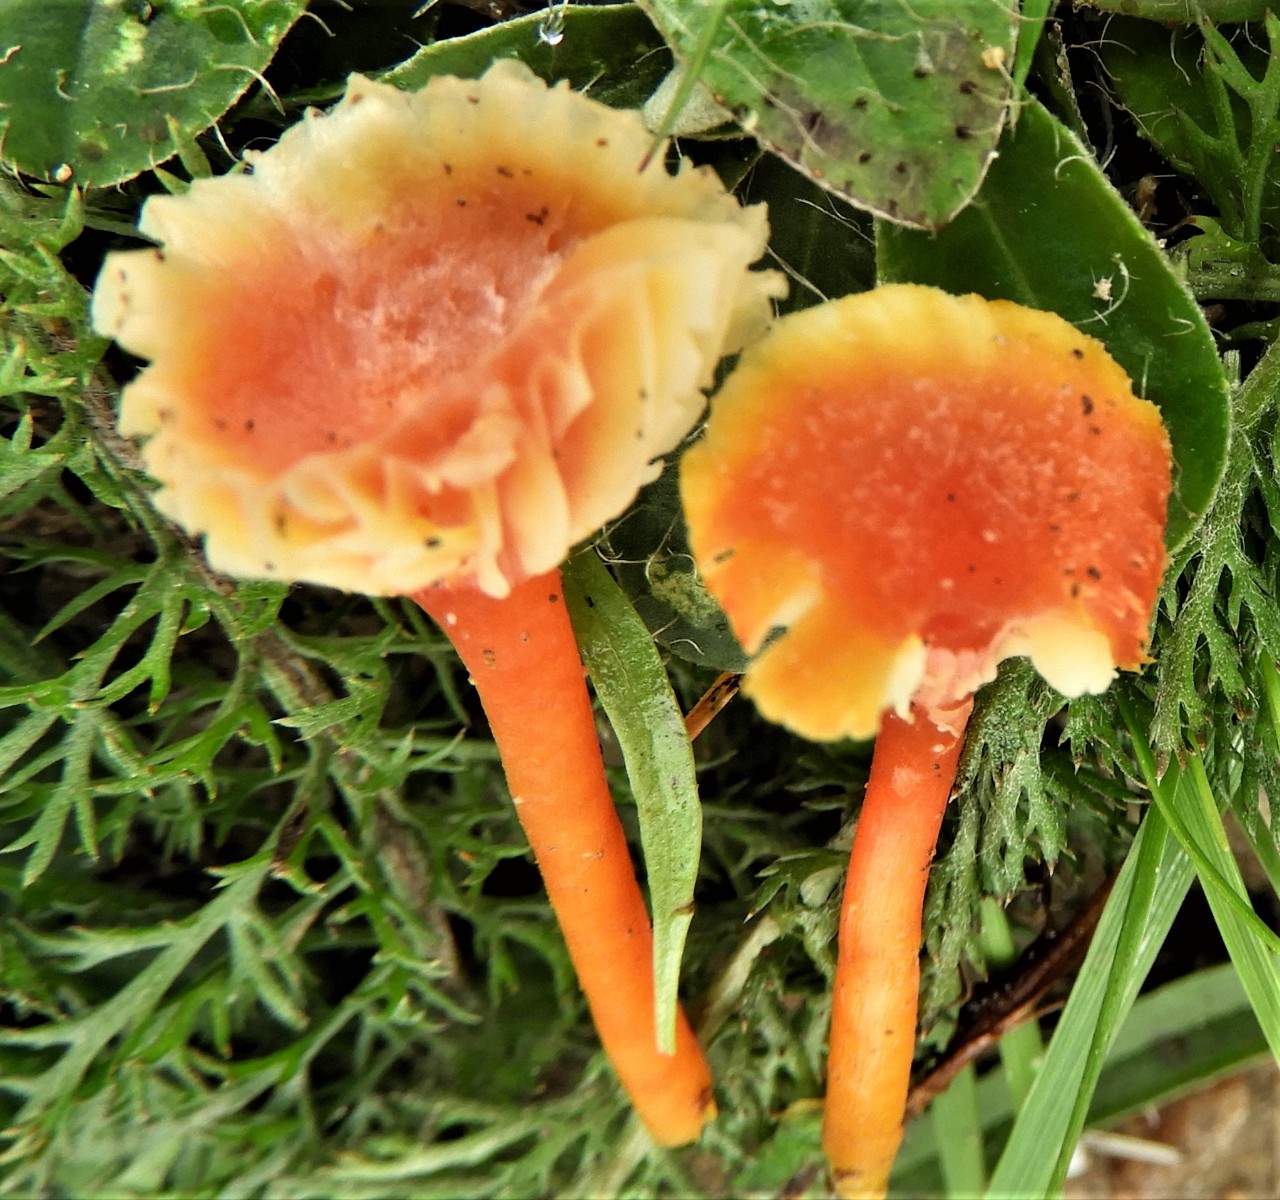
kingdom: Fungi
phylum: Basidiomycota
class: Agaricomycetes
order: Agaricales
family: Hygrophoraceae
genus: Hygrocybe
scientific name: Hygrocybe cantharellus
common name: kantarel-vokshat
